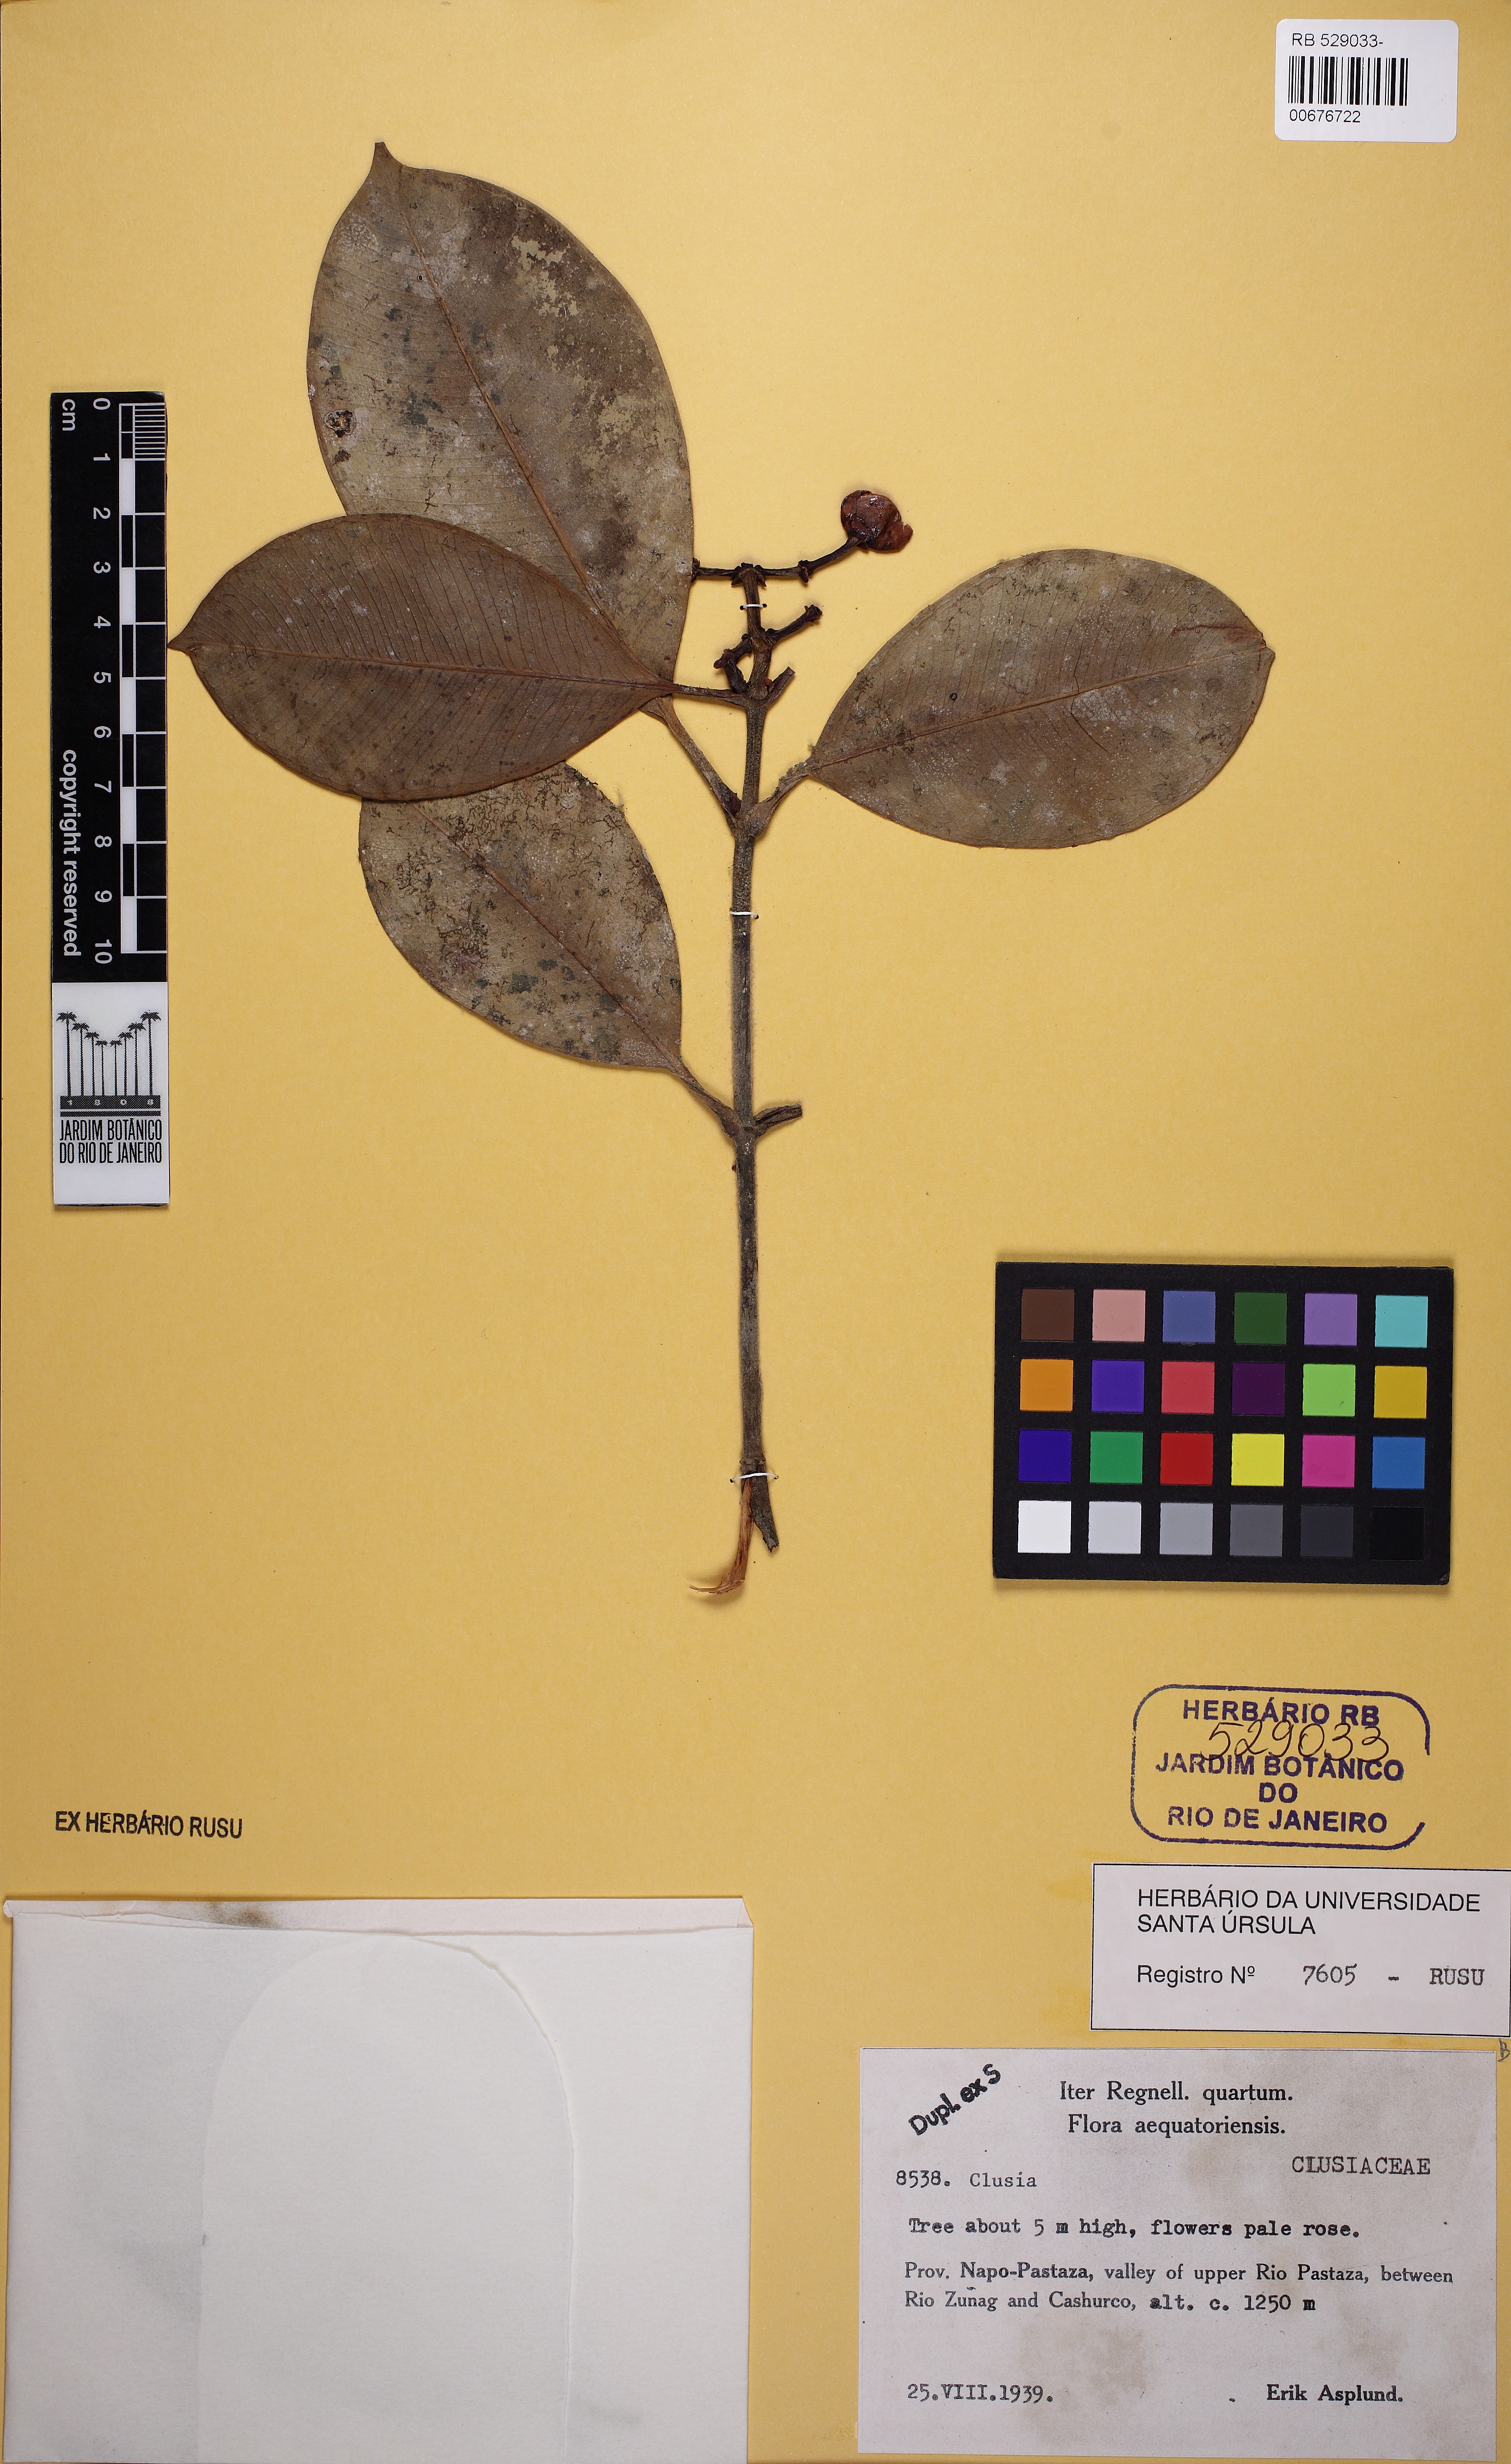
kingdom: Plantae
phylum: Tracheophyta
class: Magnoliopsida
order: Malpighiales
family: Clusiaceae
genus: Clusia
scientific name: Clusia
